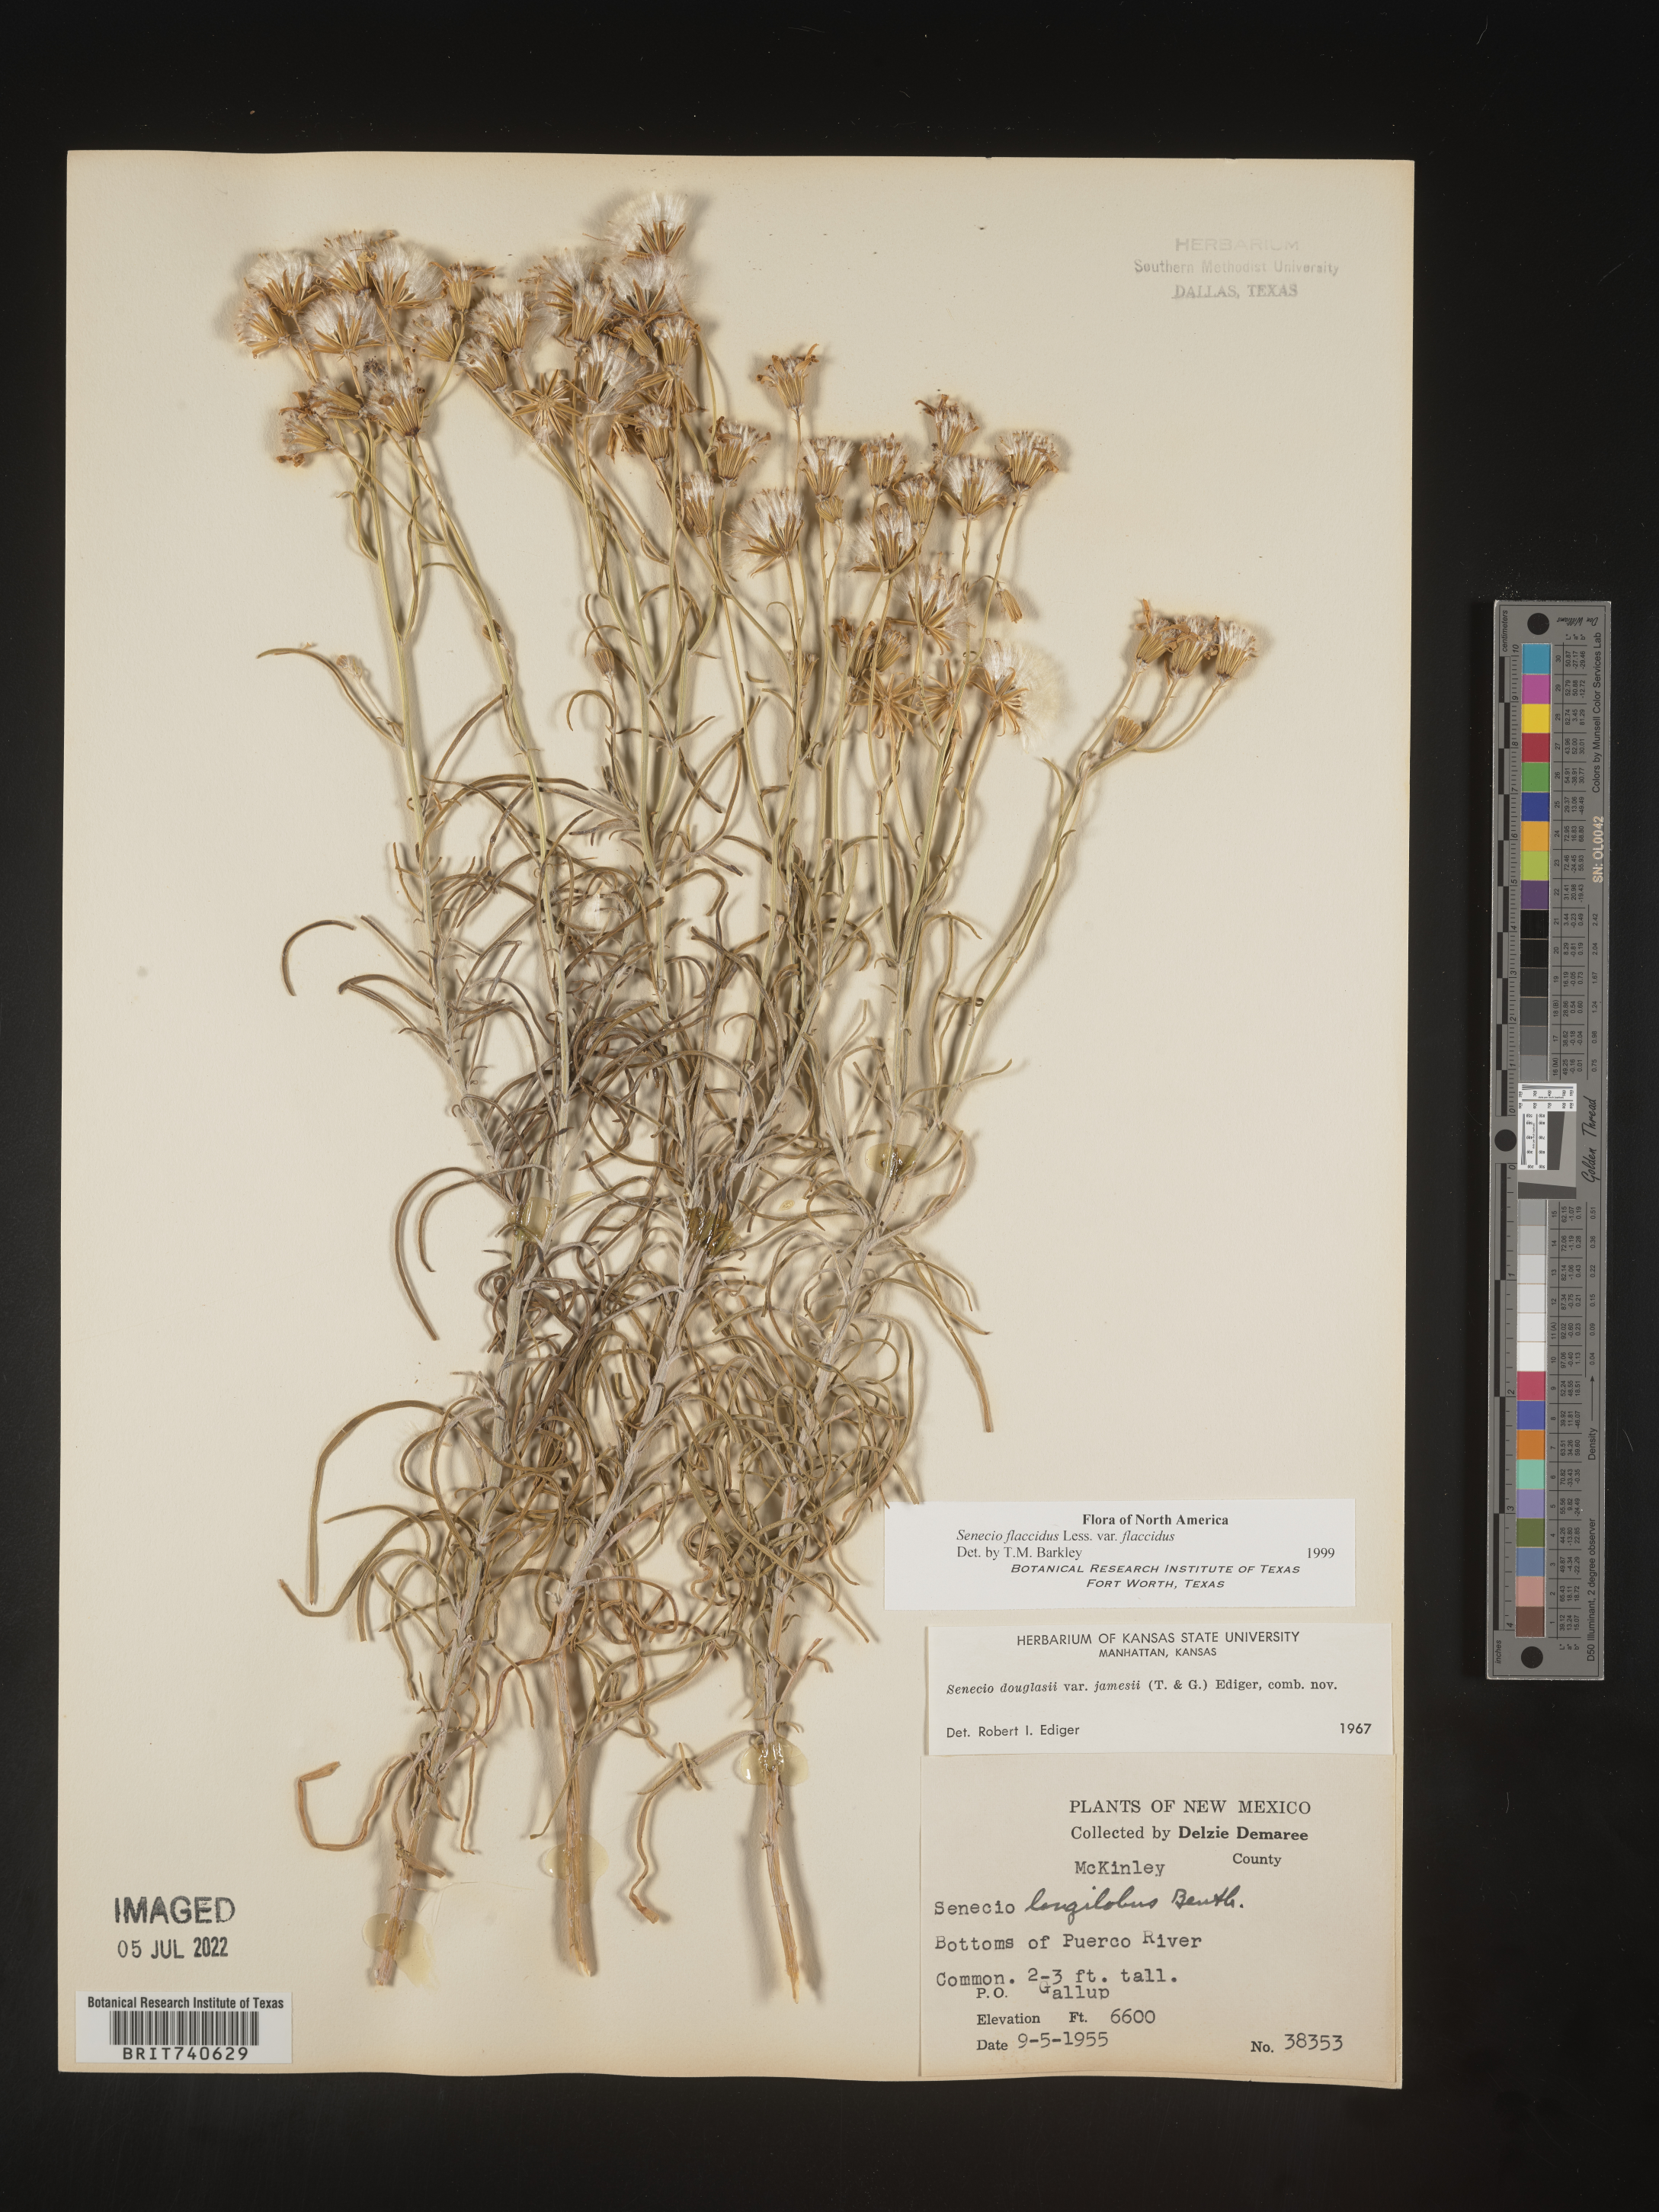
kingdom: Plantae
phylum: Tracheophyta
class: Magnoliopsida
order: Asterales
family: Asteraceae
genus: Senecio
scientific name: Senecio flaccidus
